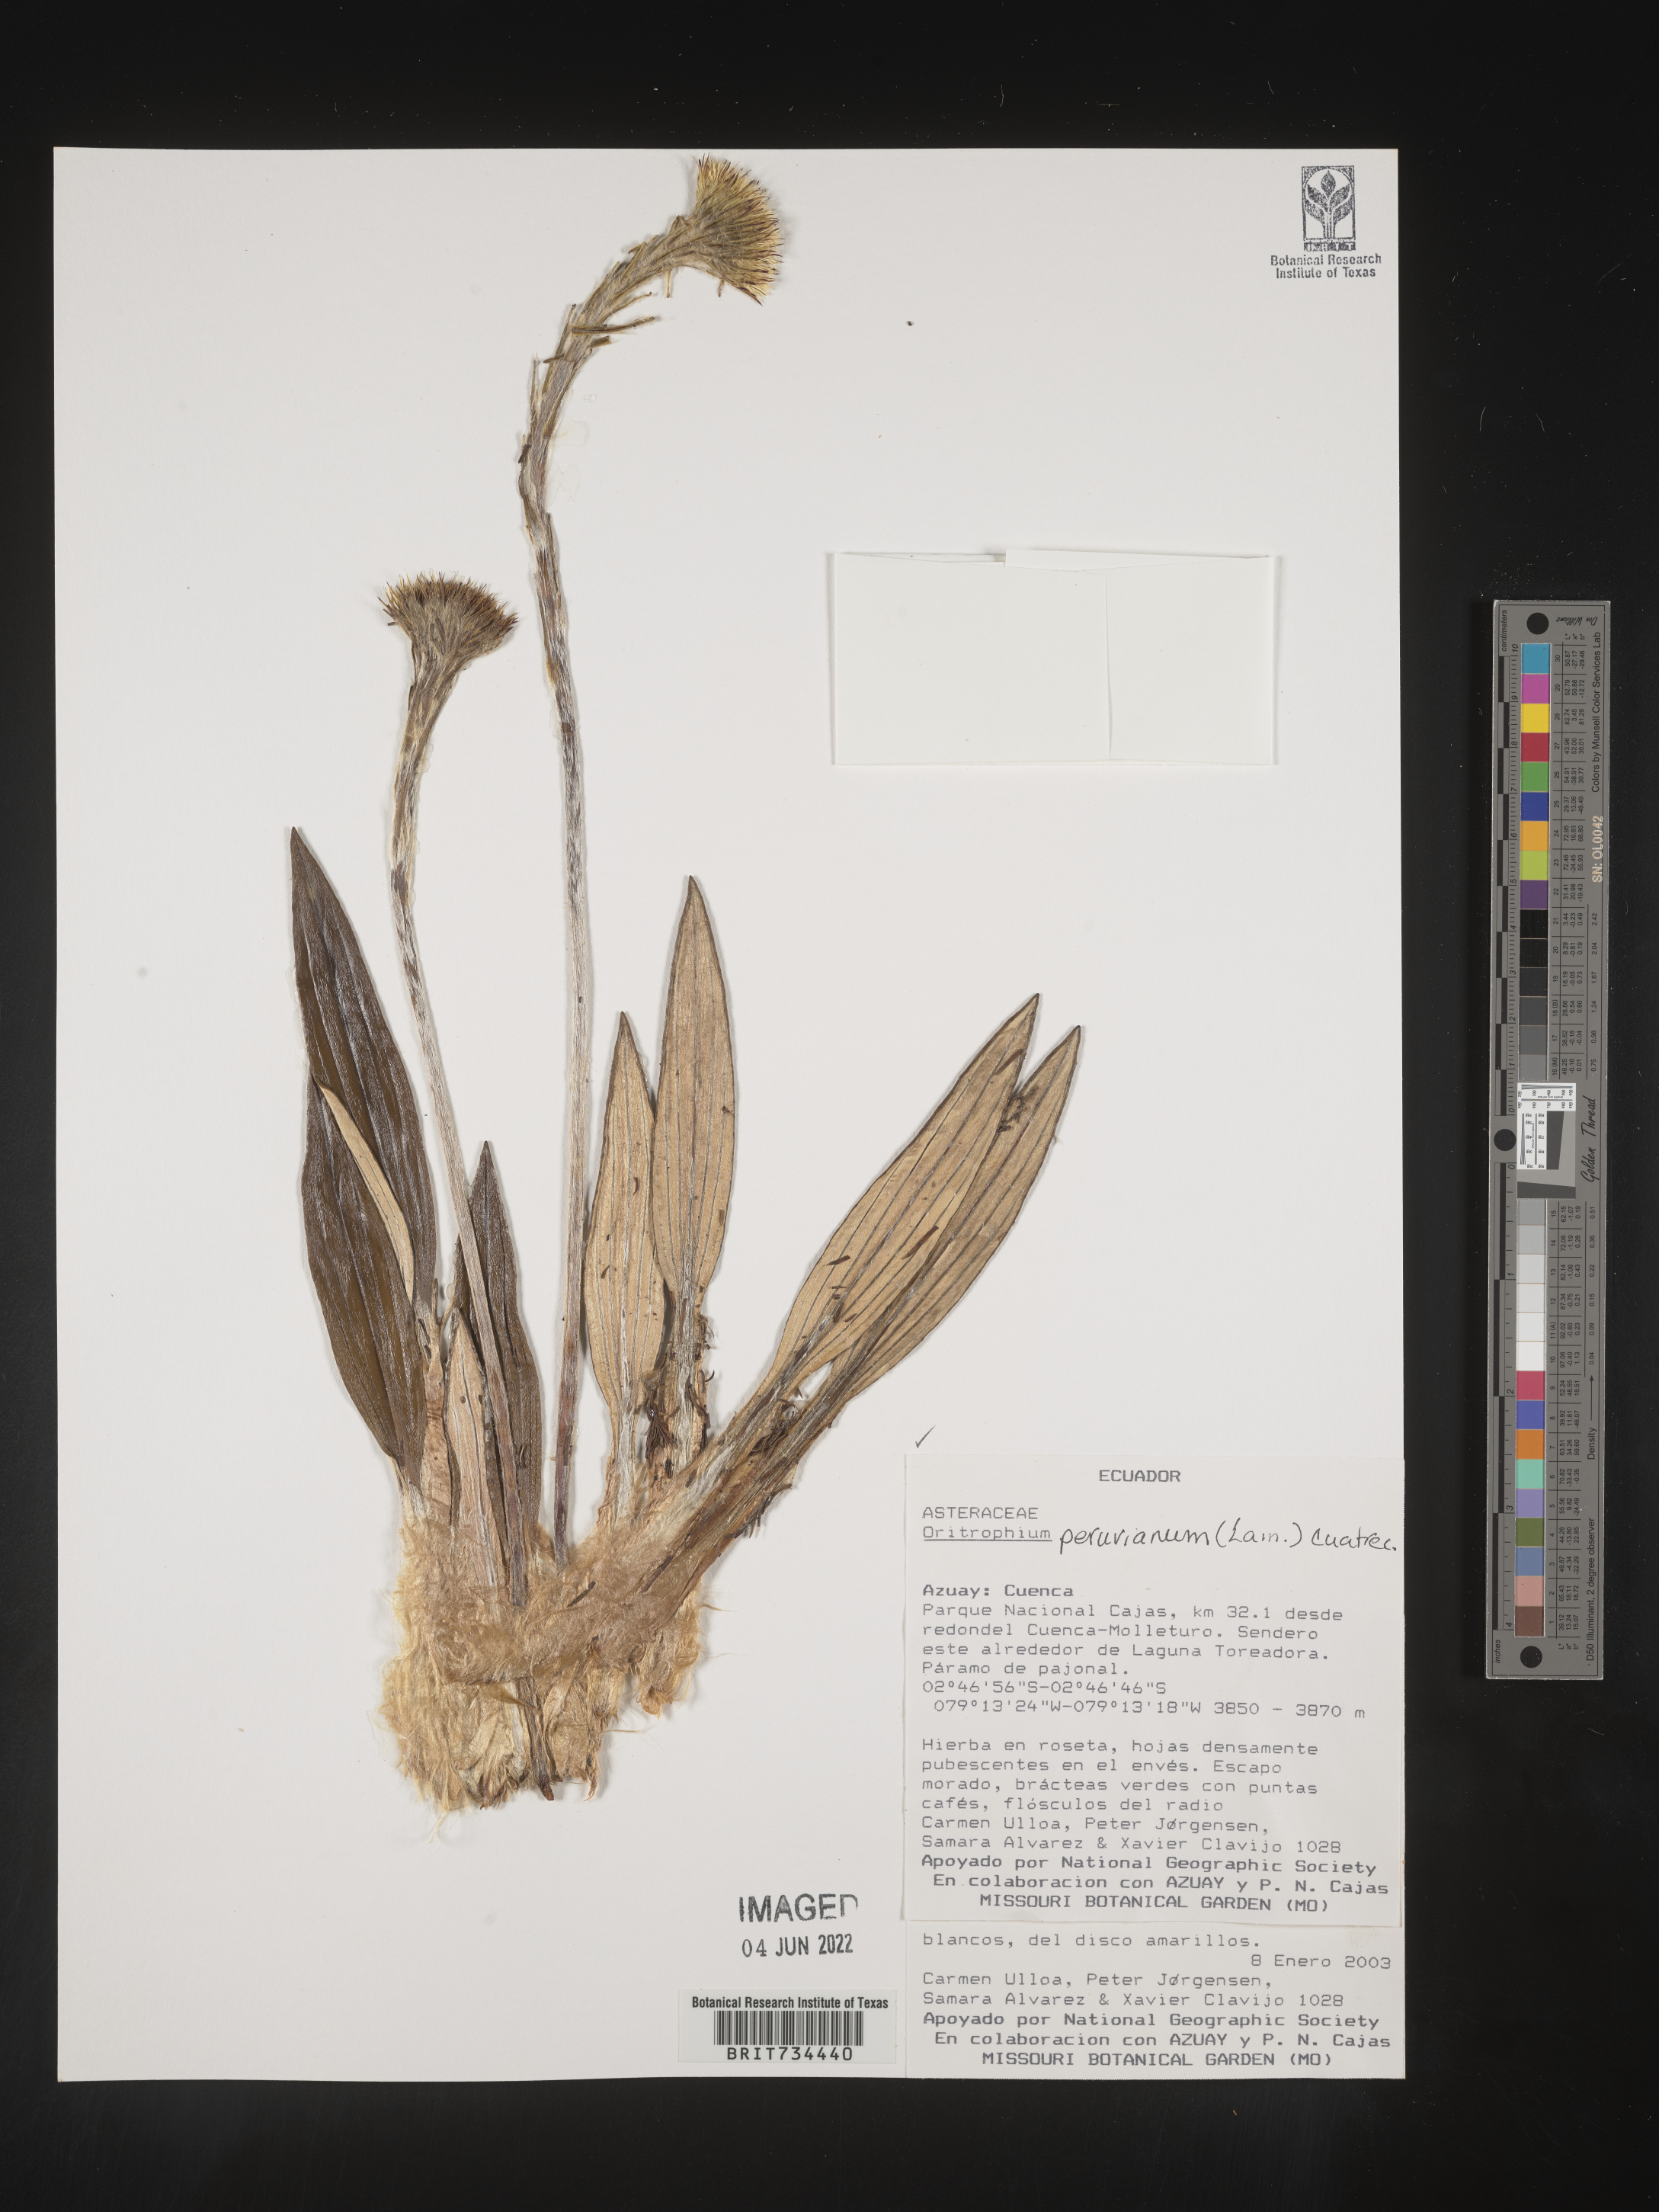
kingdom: Plantae
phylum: Tracheophyta
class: Magnoliopsida
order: Asterales
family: Asteraceae
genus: Oritrophium
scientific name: Oritrophium peruvianum
